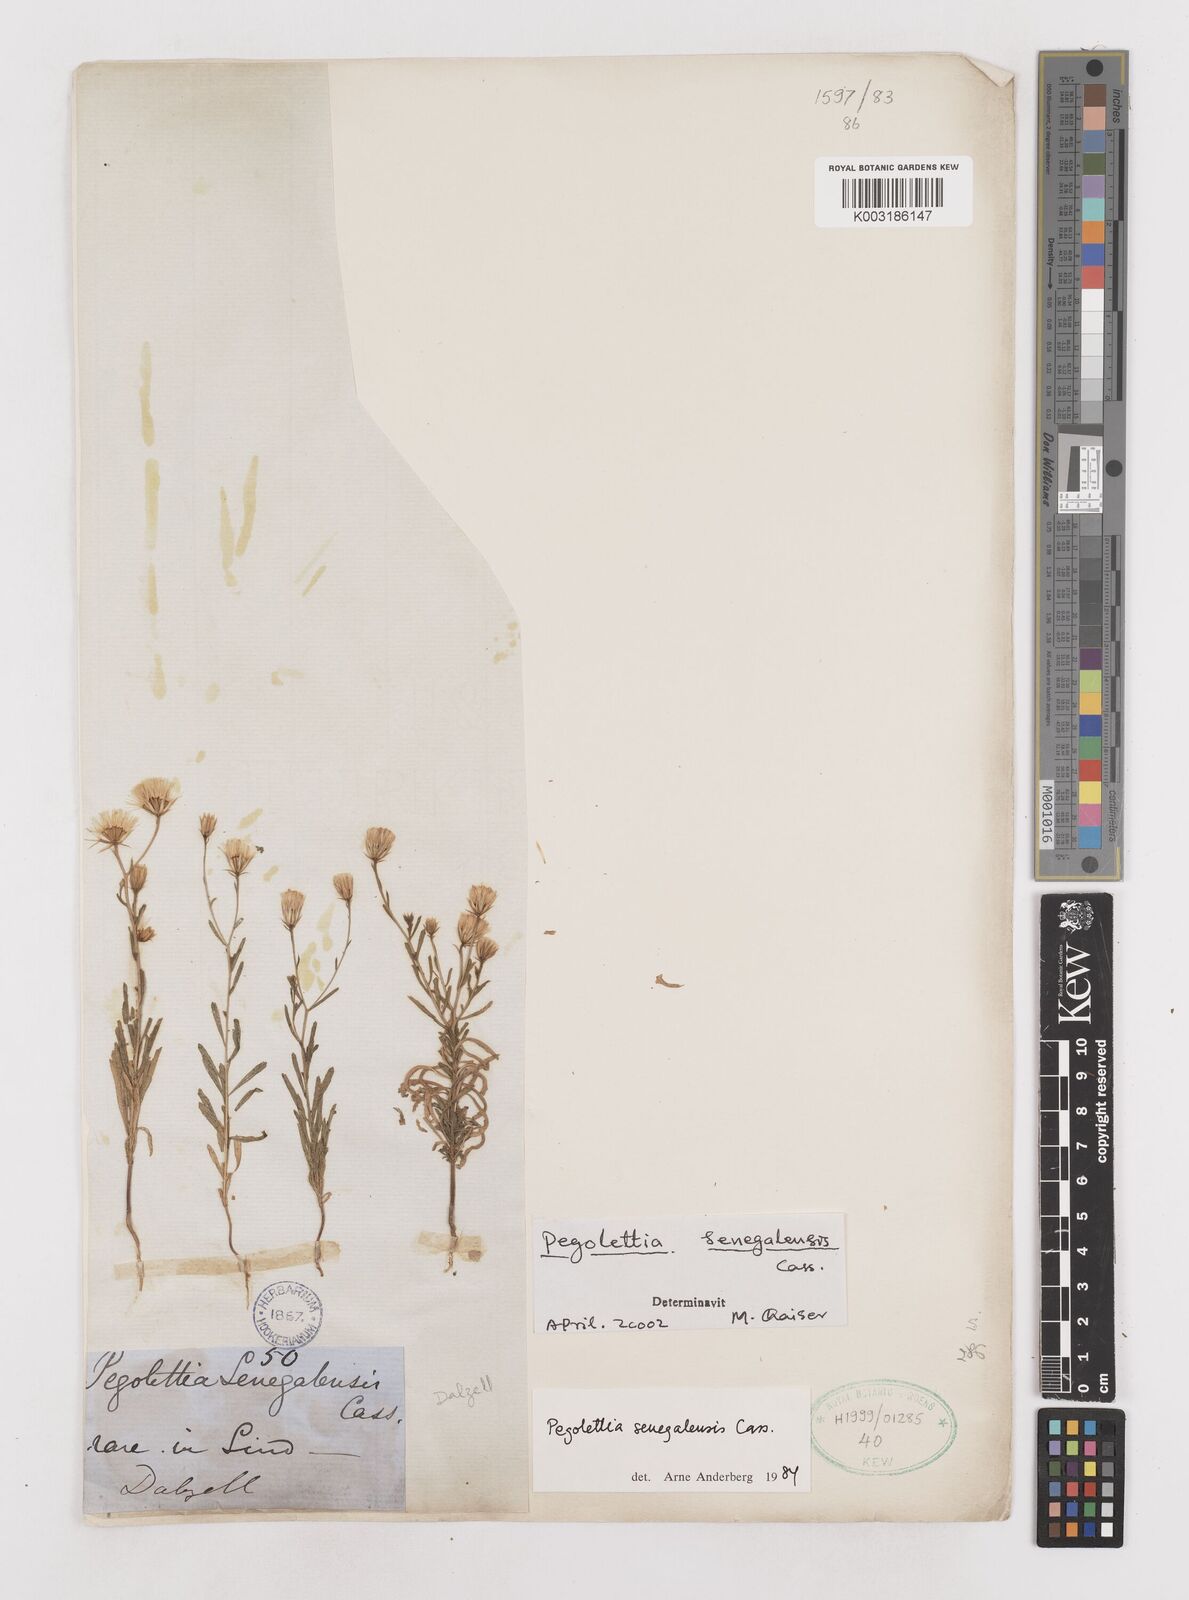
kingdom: Plantae
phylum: Tracheophyta
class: Magnoliopsida
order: Asterales
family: Asteraceae
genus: Pegolettia
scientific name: Pegolettia senegalensis
